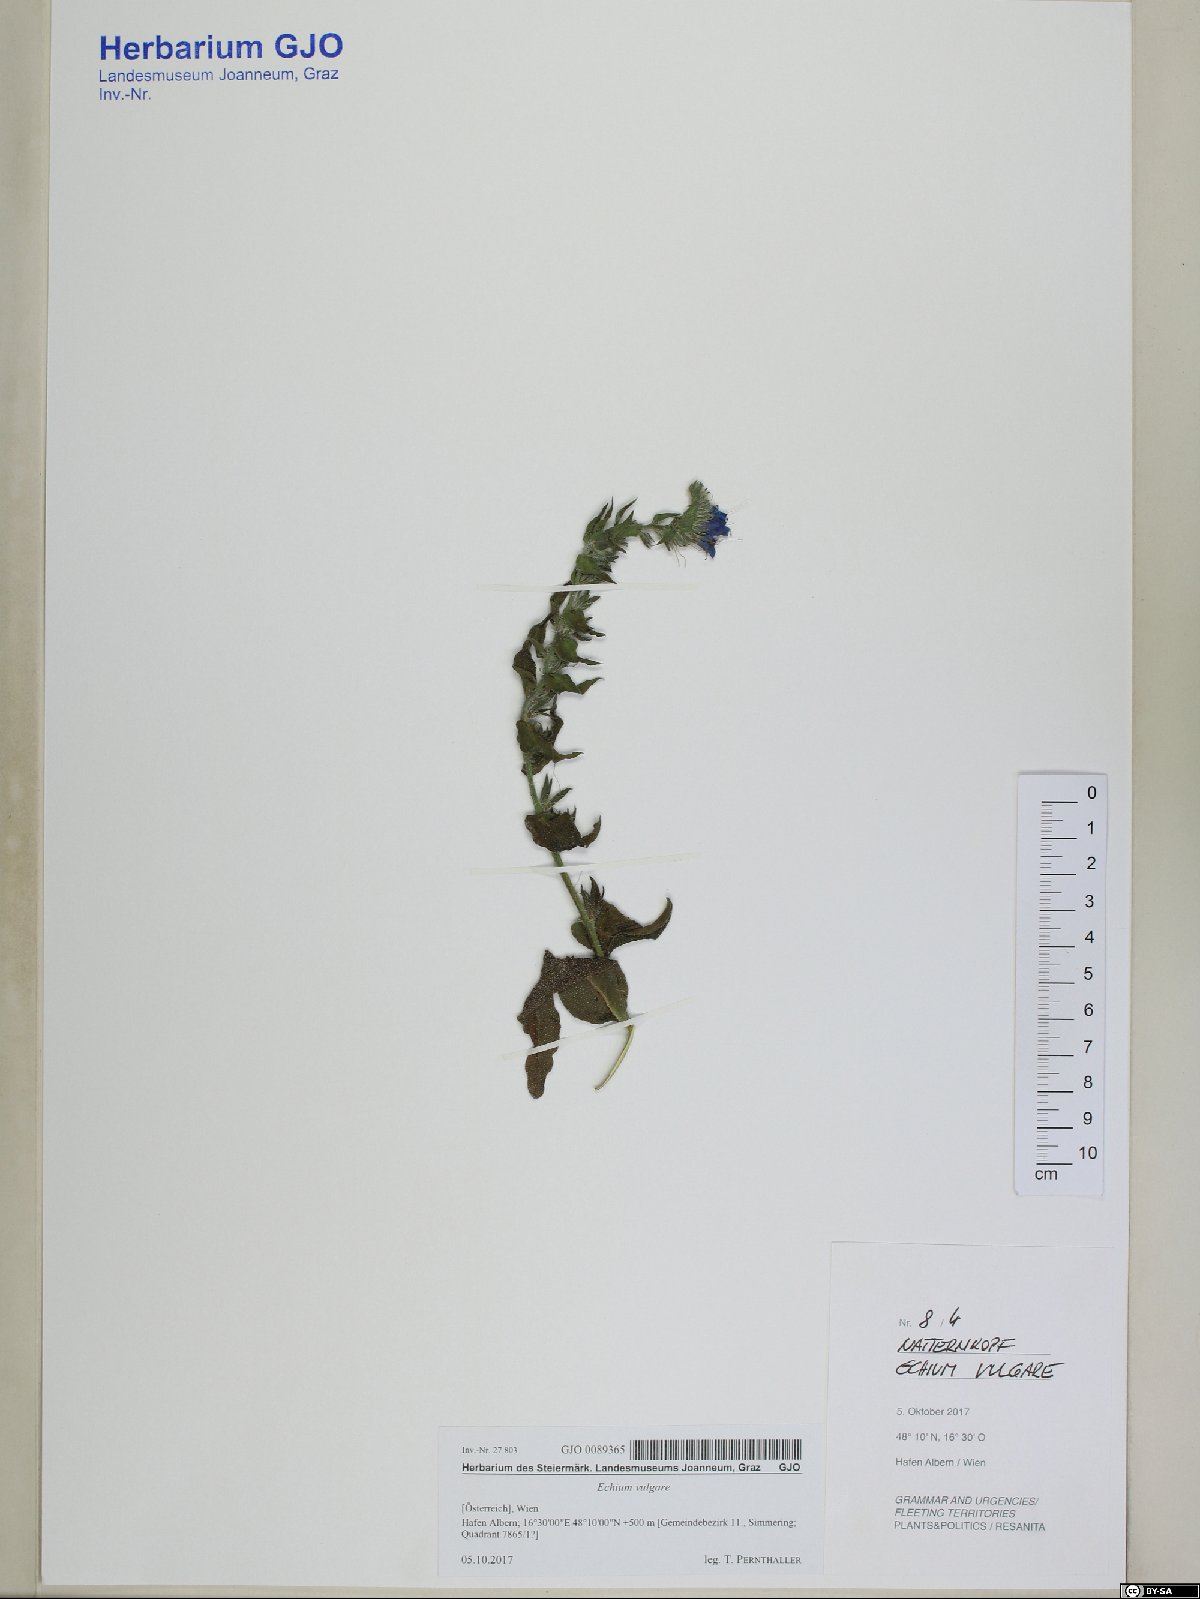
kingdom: Plantae
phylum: Tracheophyta
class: Magnoliopsida
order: Boraginales
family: Boraginaceae
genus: Echium
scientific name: Echium vulgare
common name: Common viper's bugloss
